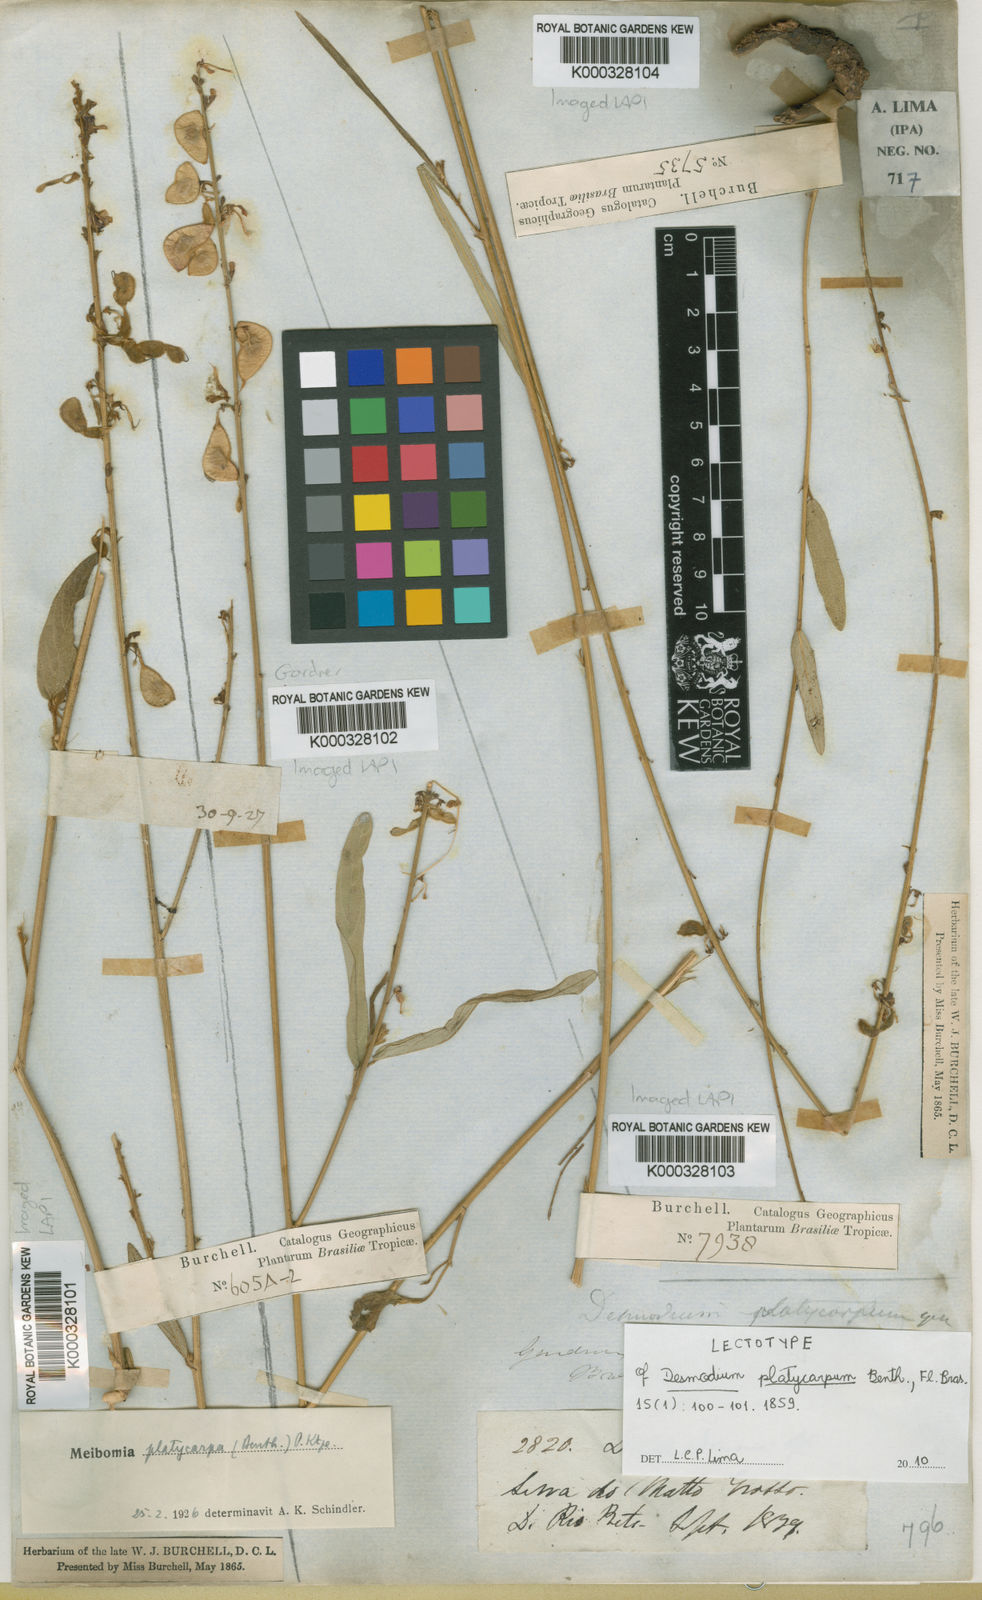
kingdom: Plantae
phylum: Tracheophyta
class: Magnoliopsida
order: Fabales
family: Fabaceae
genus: Desmodium
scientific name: Desmodium platycarpum
